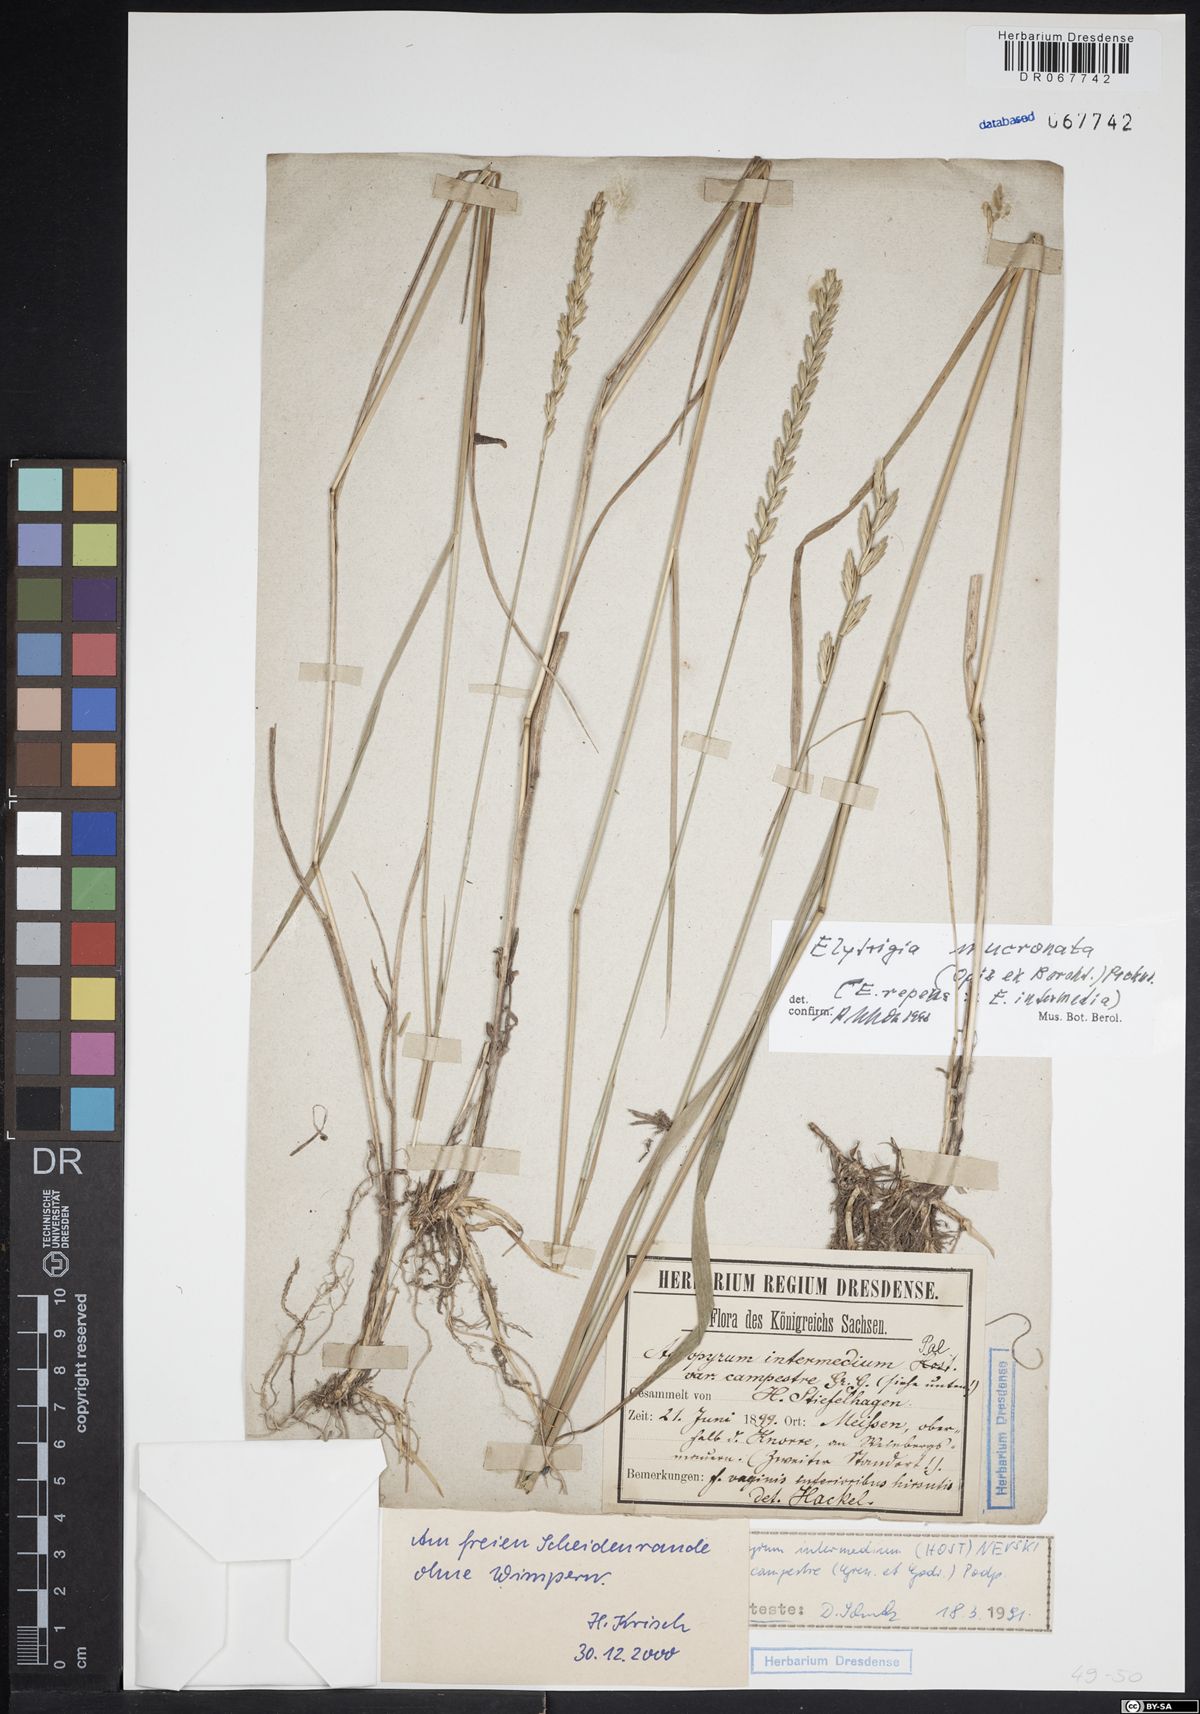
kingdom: Plantae
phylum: Tracheophyta
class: Liliopsida
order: Poales
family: Poaceae
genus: Thinoelymus
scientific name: Thinoelymus mucronatus
